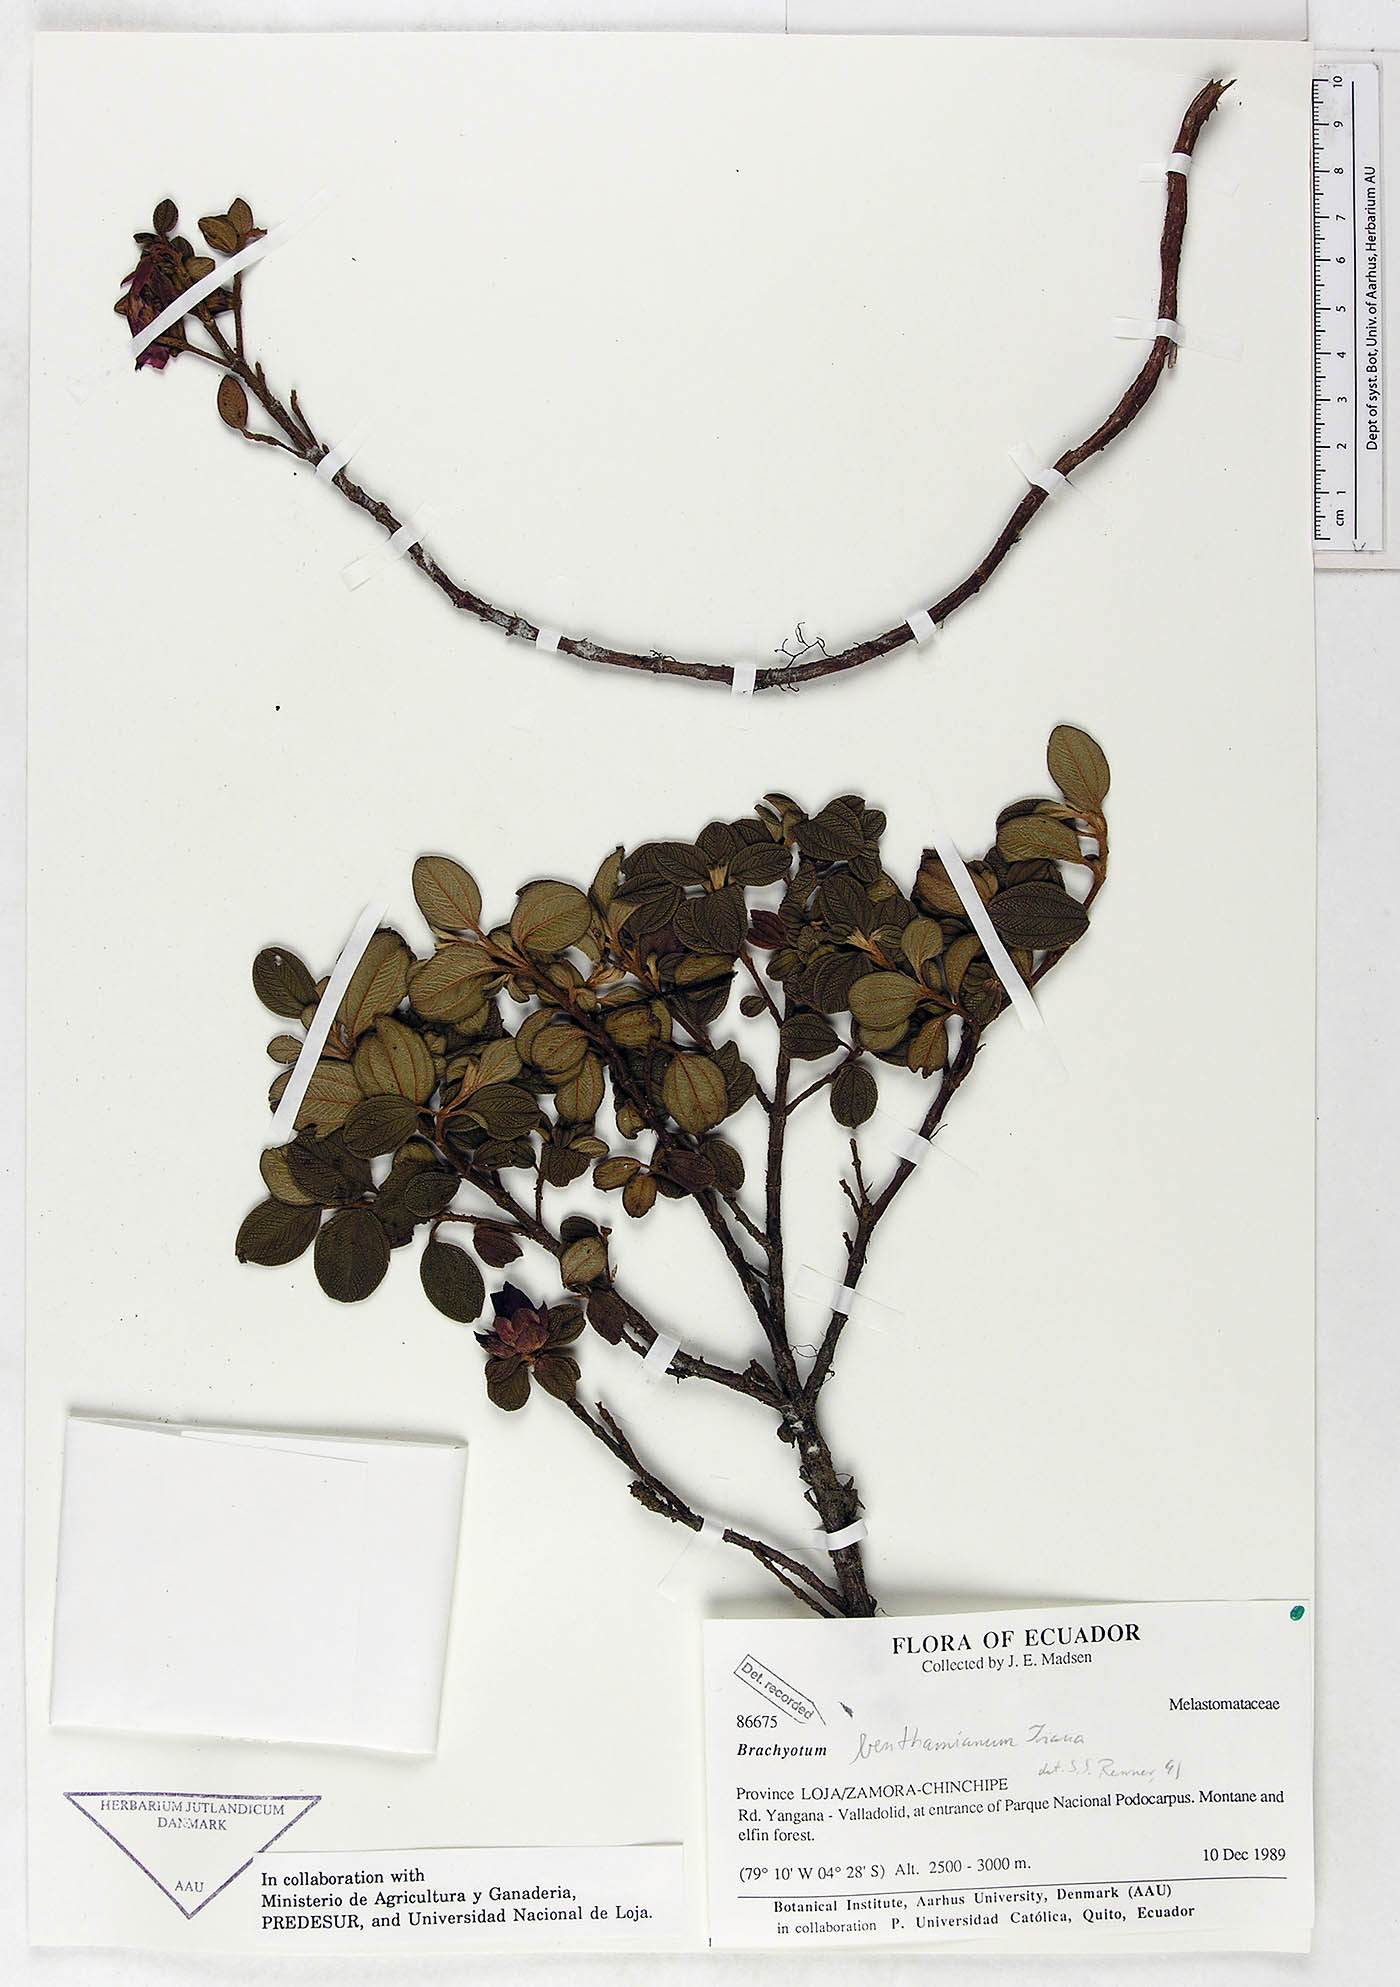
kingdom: Plantae
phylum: Tracheophyta
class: Magnoliopsida
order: Myrtales
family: Melastomataceae
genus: Brachyotum
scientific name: Brachyotum benthamianum
